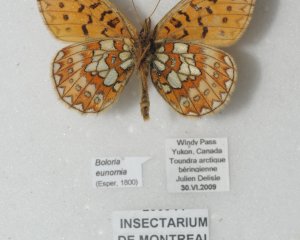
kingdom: Animalia
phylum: Arthropoda
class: Insecta
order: Lepidoptera
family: Nymphalidae
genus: Boloria
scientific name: Boloria eunomia
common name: Bog Fritillary
